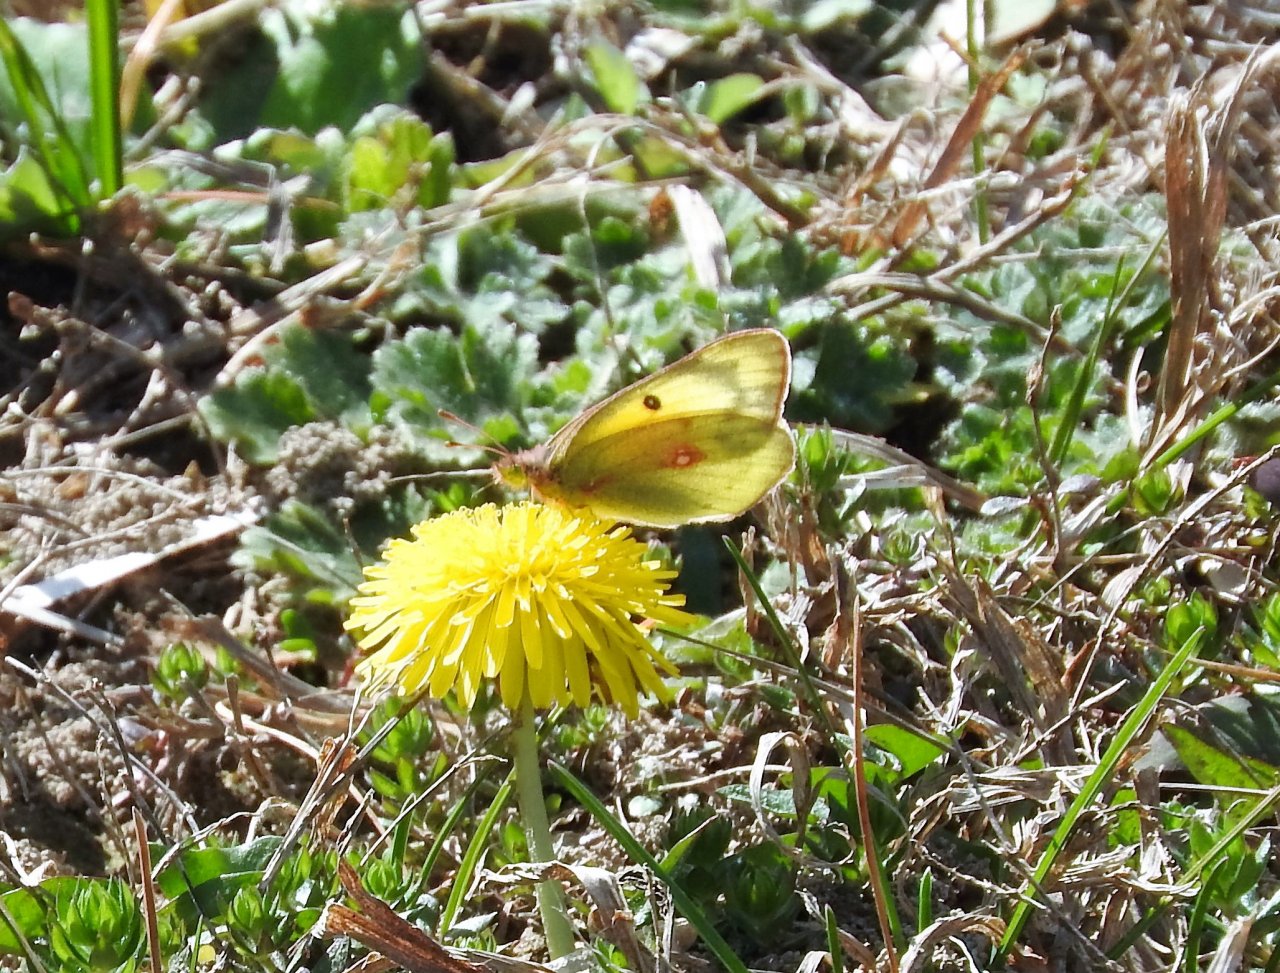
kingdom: Animalia
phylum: Arthropoda
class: Insecta
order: Lepidoptera
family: Pieridae
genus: Colias
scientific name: Colias eurytheme
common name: Orange Sulphur
